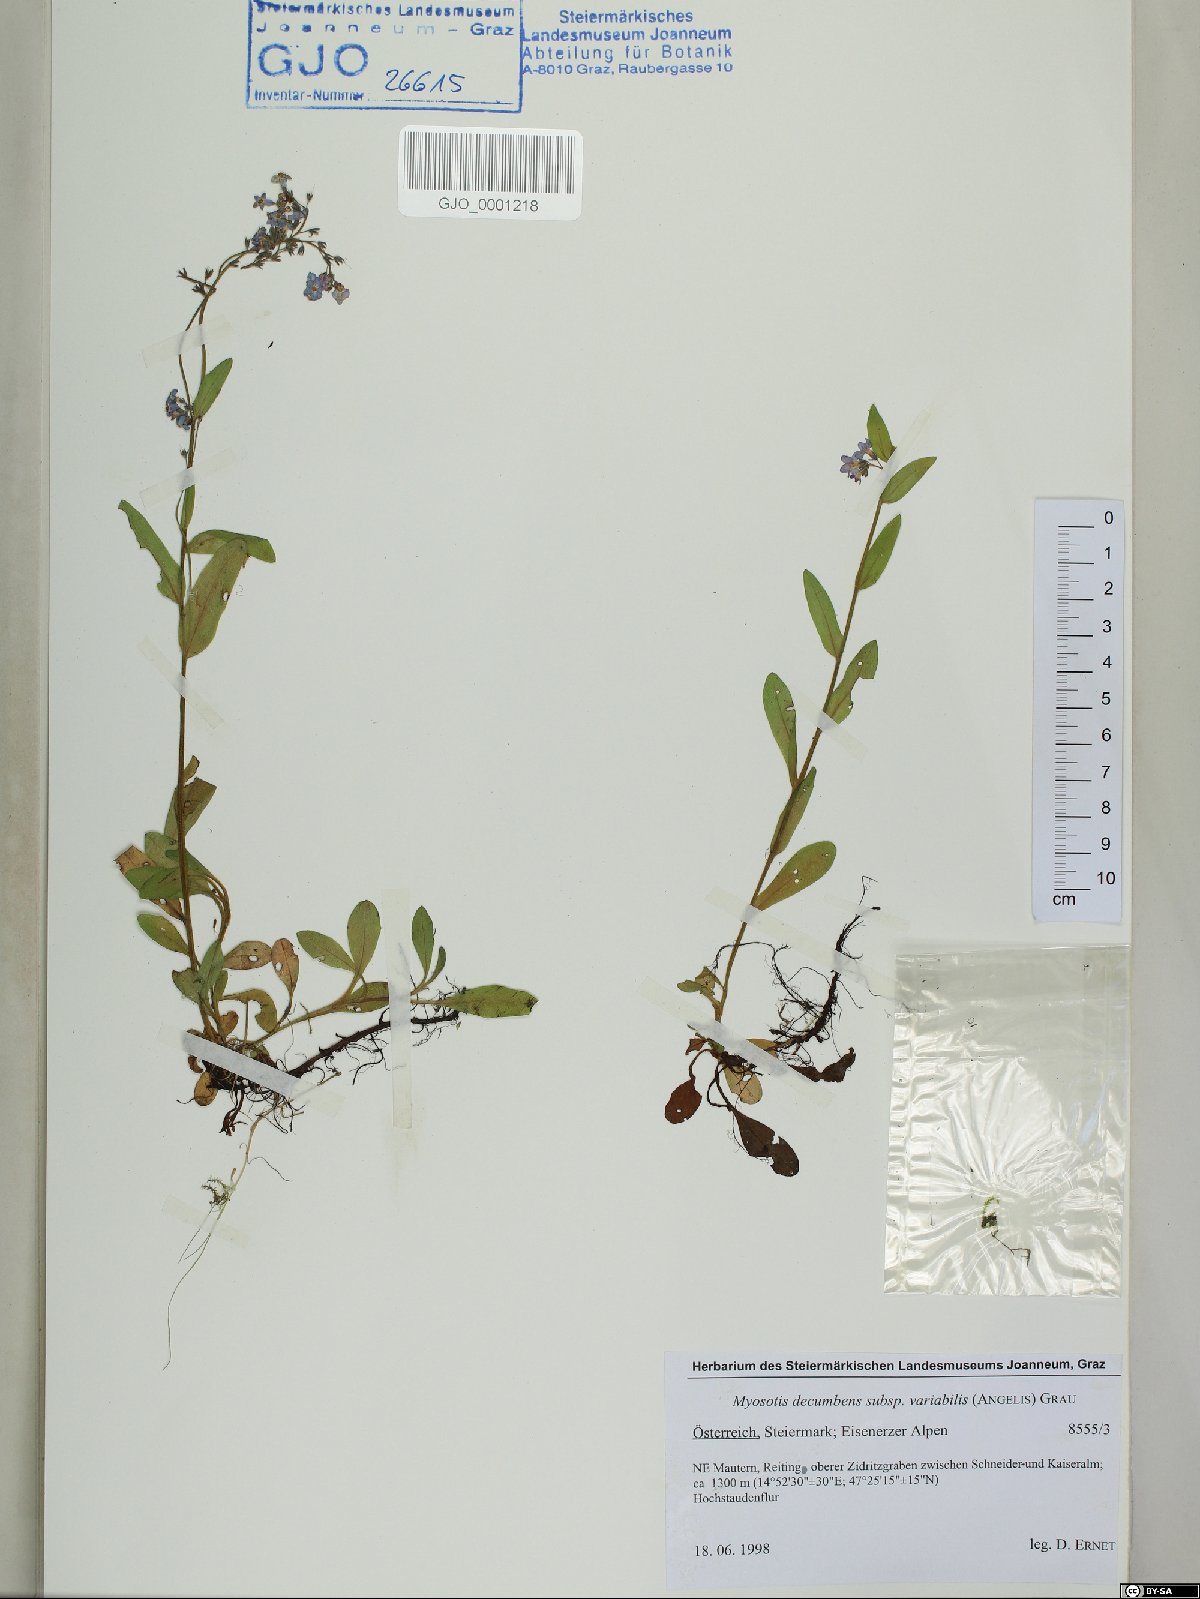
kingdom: Plantae
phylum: Tracheophyta
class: Magnoliopsida
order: Boraginales
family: Boraginaceae
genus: Myosotis
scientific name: Myosotis decumbens
